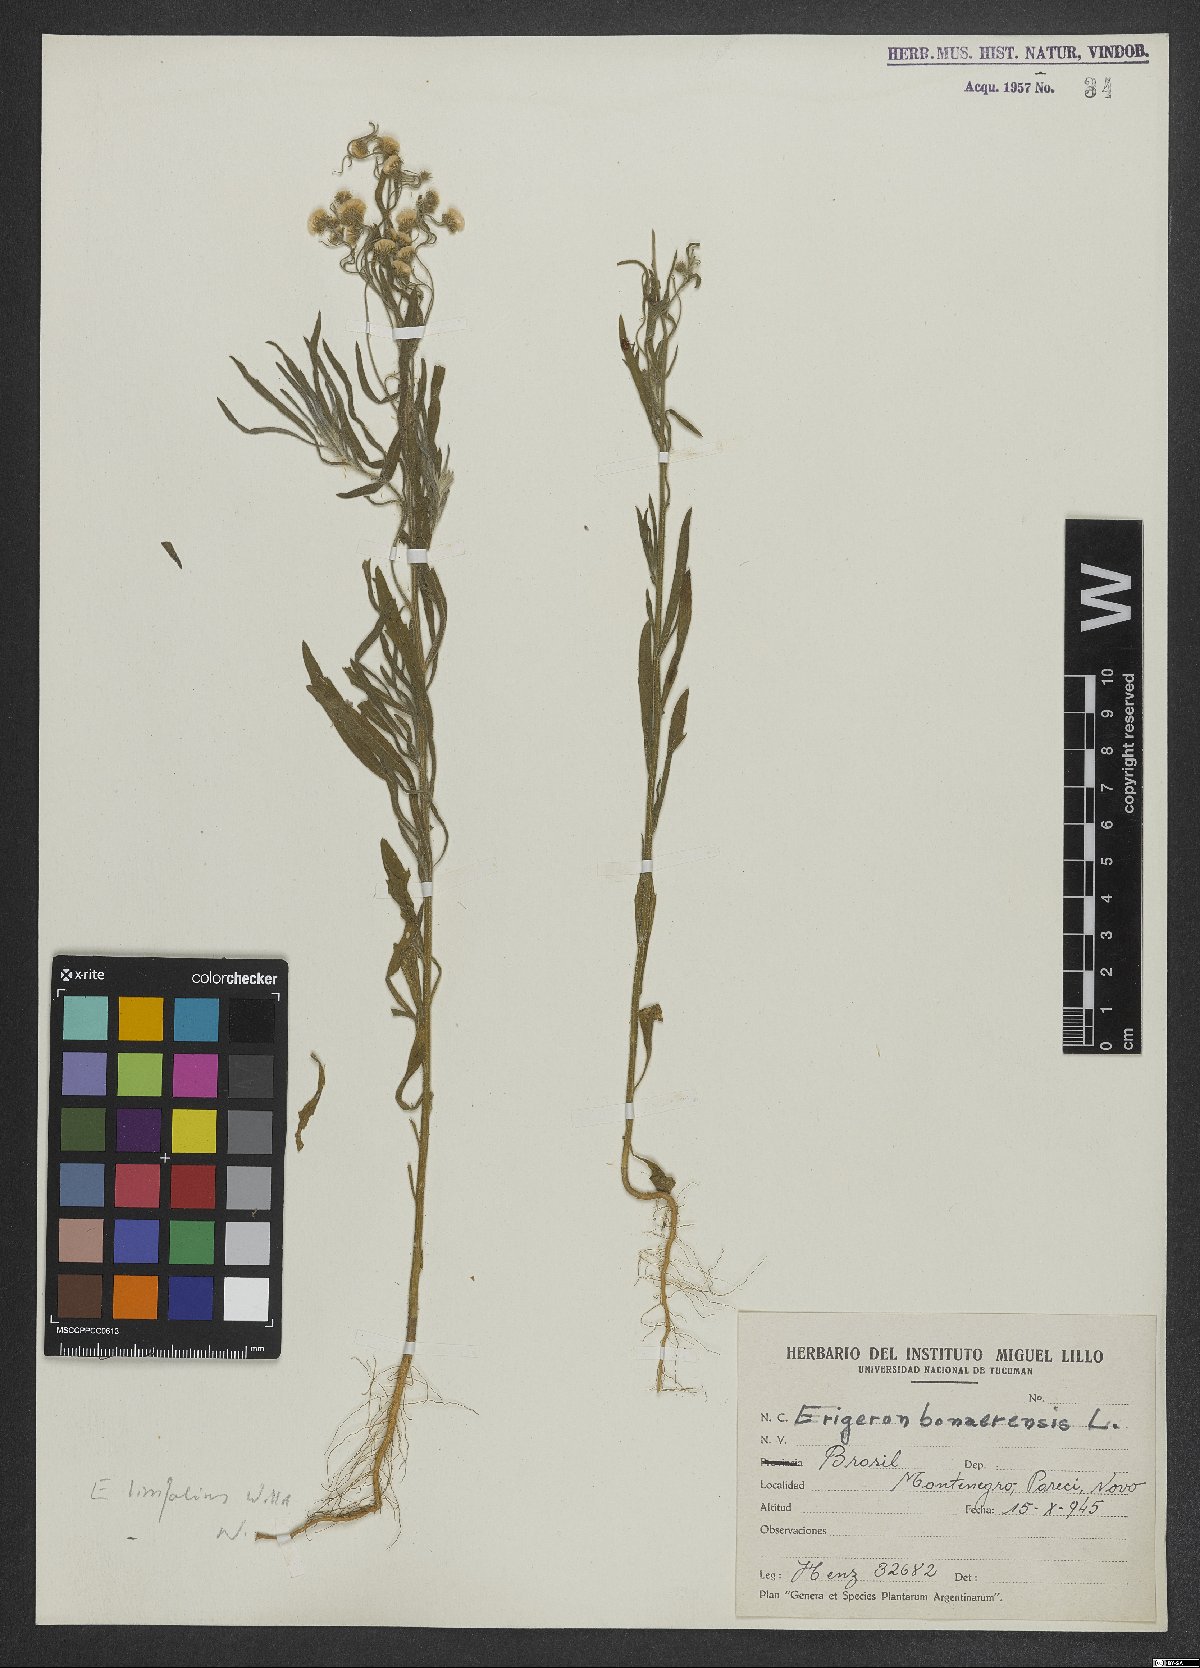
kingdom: Plantae
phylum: Tracheophyta
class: Magnoliopsida
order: Asterales
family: Asteraceae
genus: Erigeron
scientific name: Erigeron bonariensis
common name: Argentine fleabane
